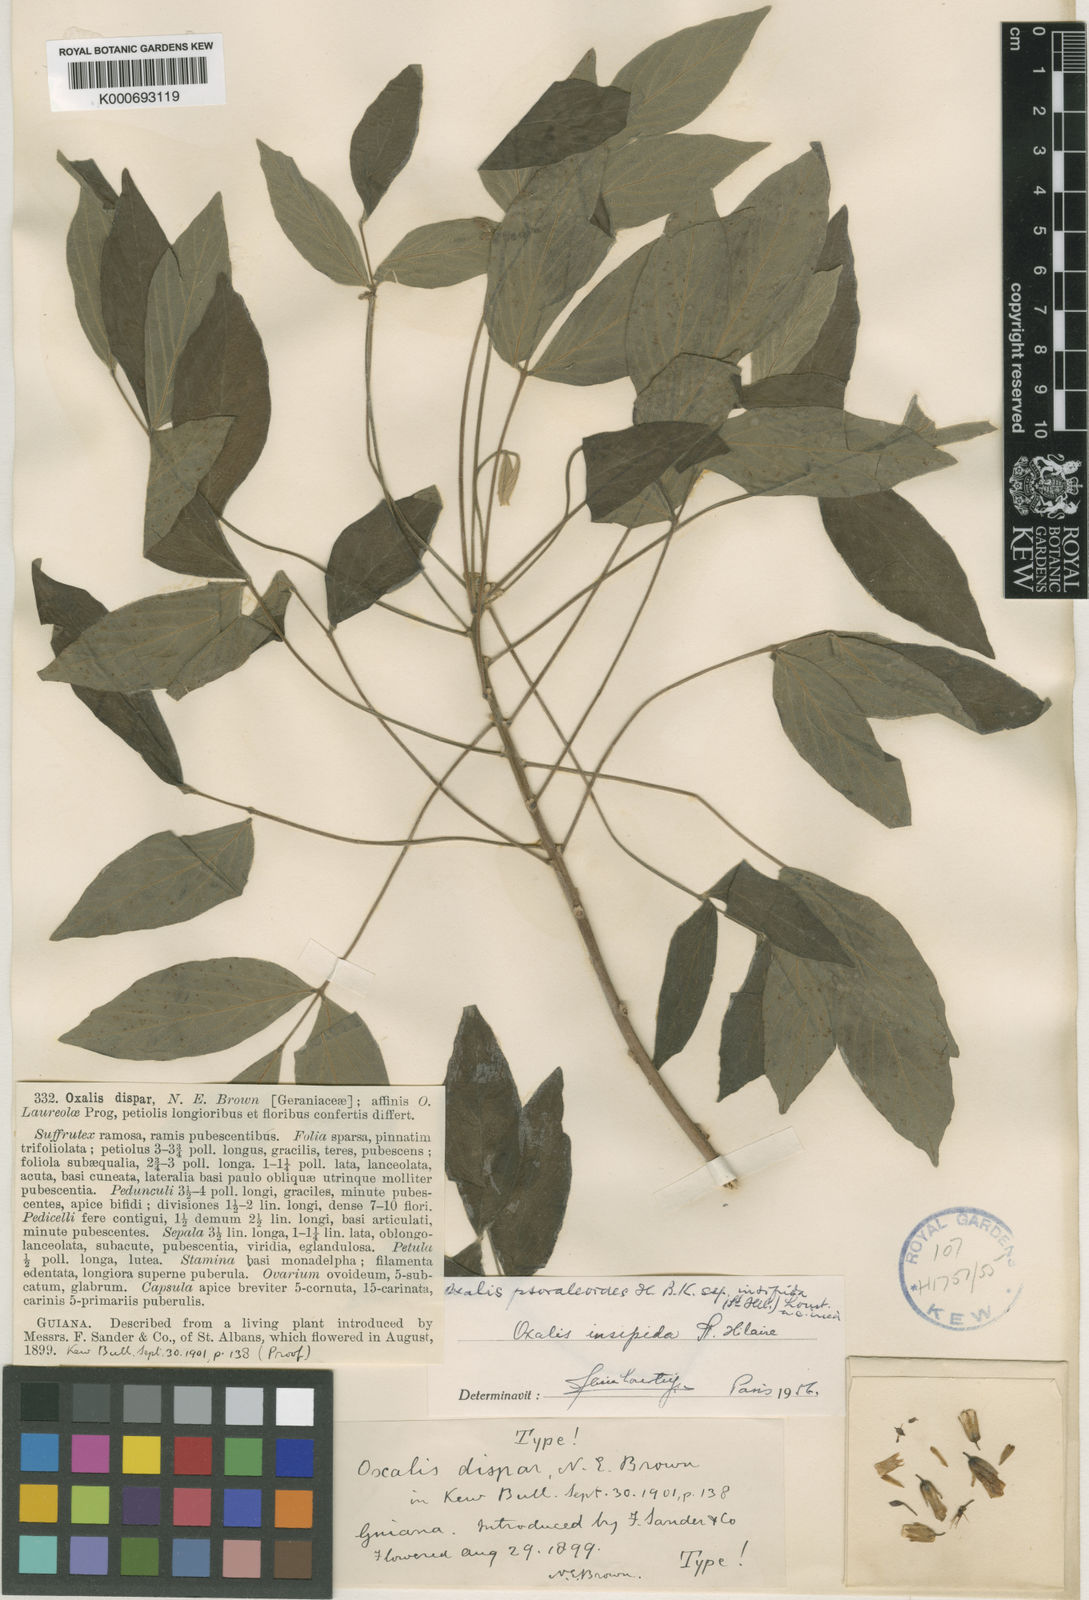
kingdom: Plantae
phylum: Tracheophyta
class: Magnoliopsida
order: Oxalidales
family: Oxalidaceae
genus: Oxalis
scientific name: Oxalis
